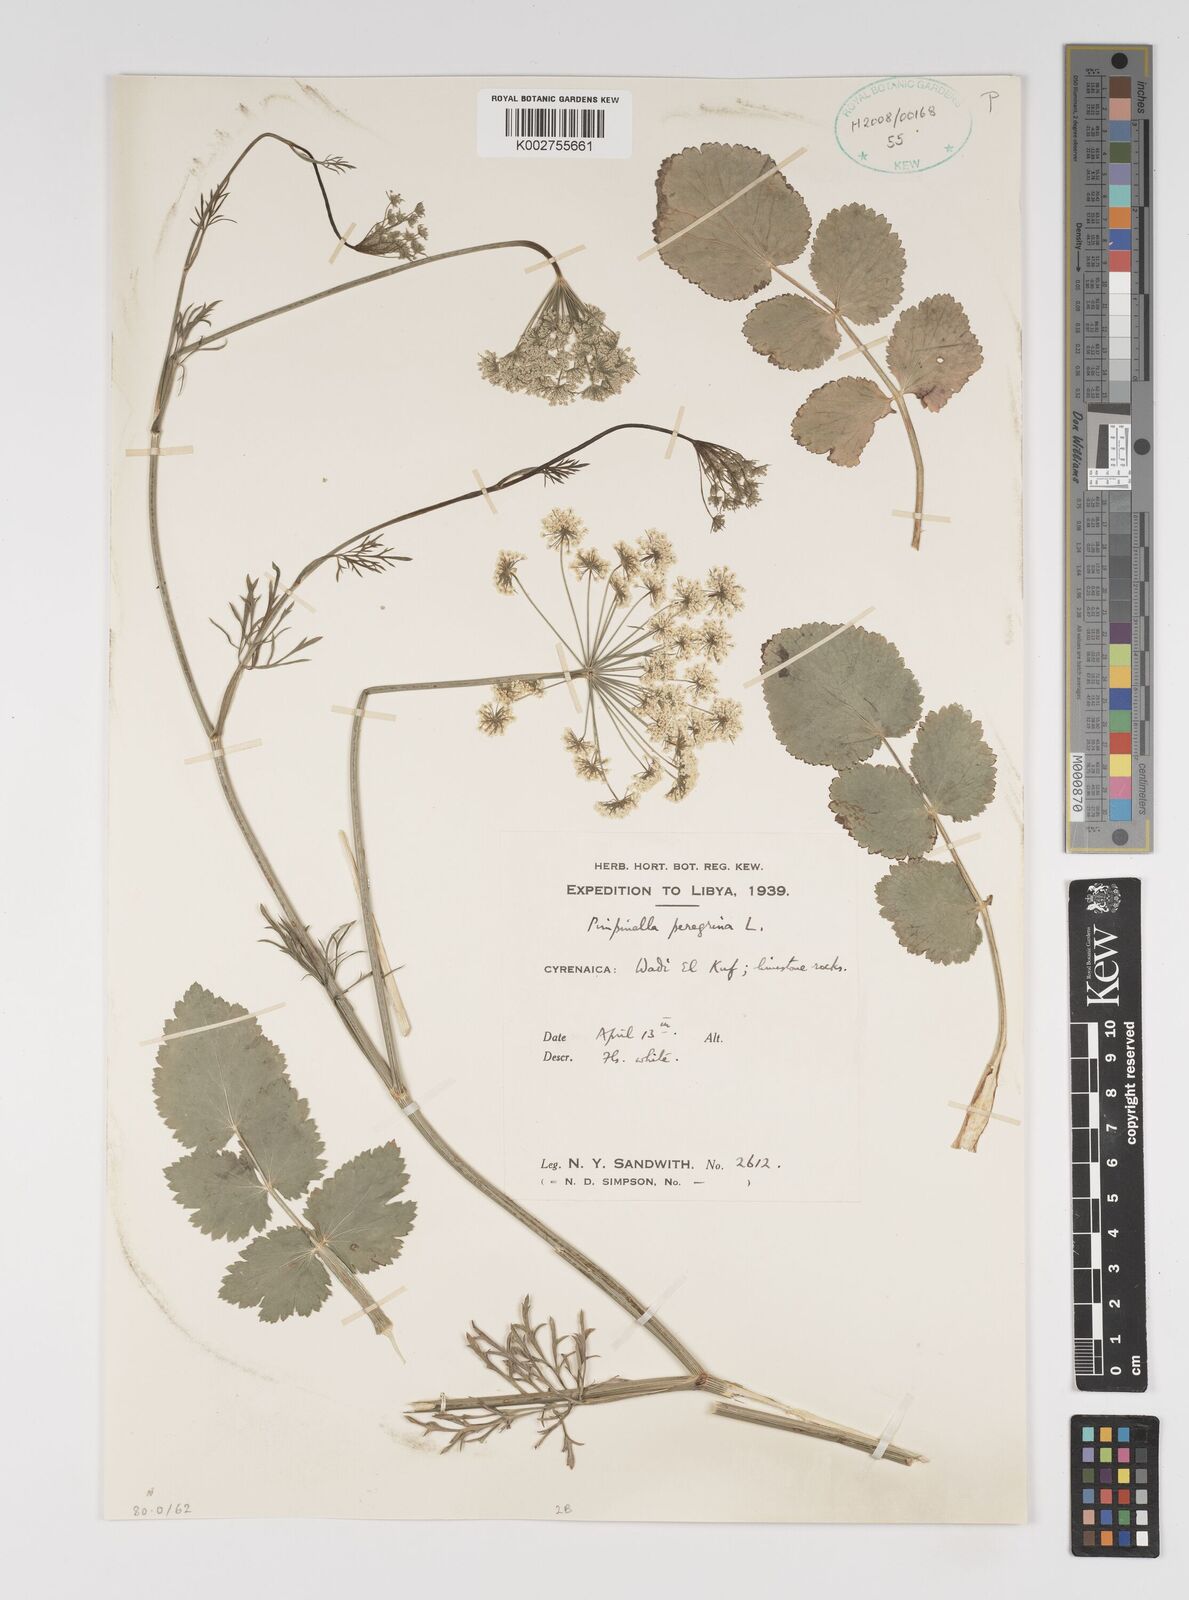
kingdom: Plantae
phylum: Tracheophyta
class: Magnoliopsida
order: Apiales
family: Apiaceae
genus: Pimpinella
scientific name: Pimpinella peregrina
